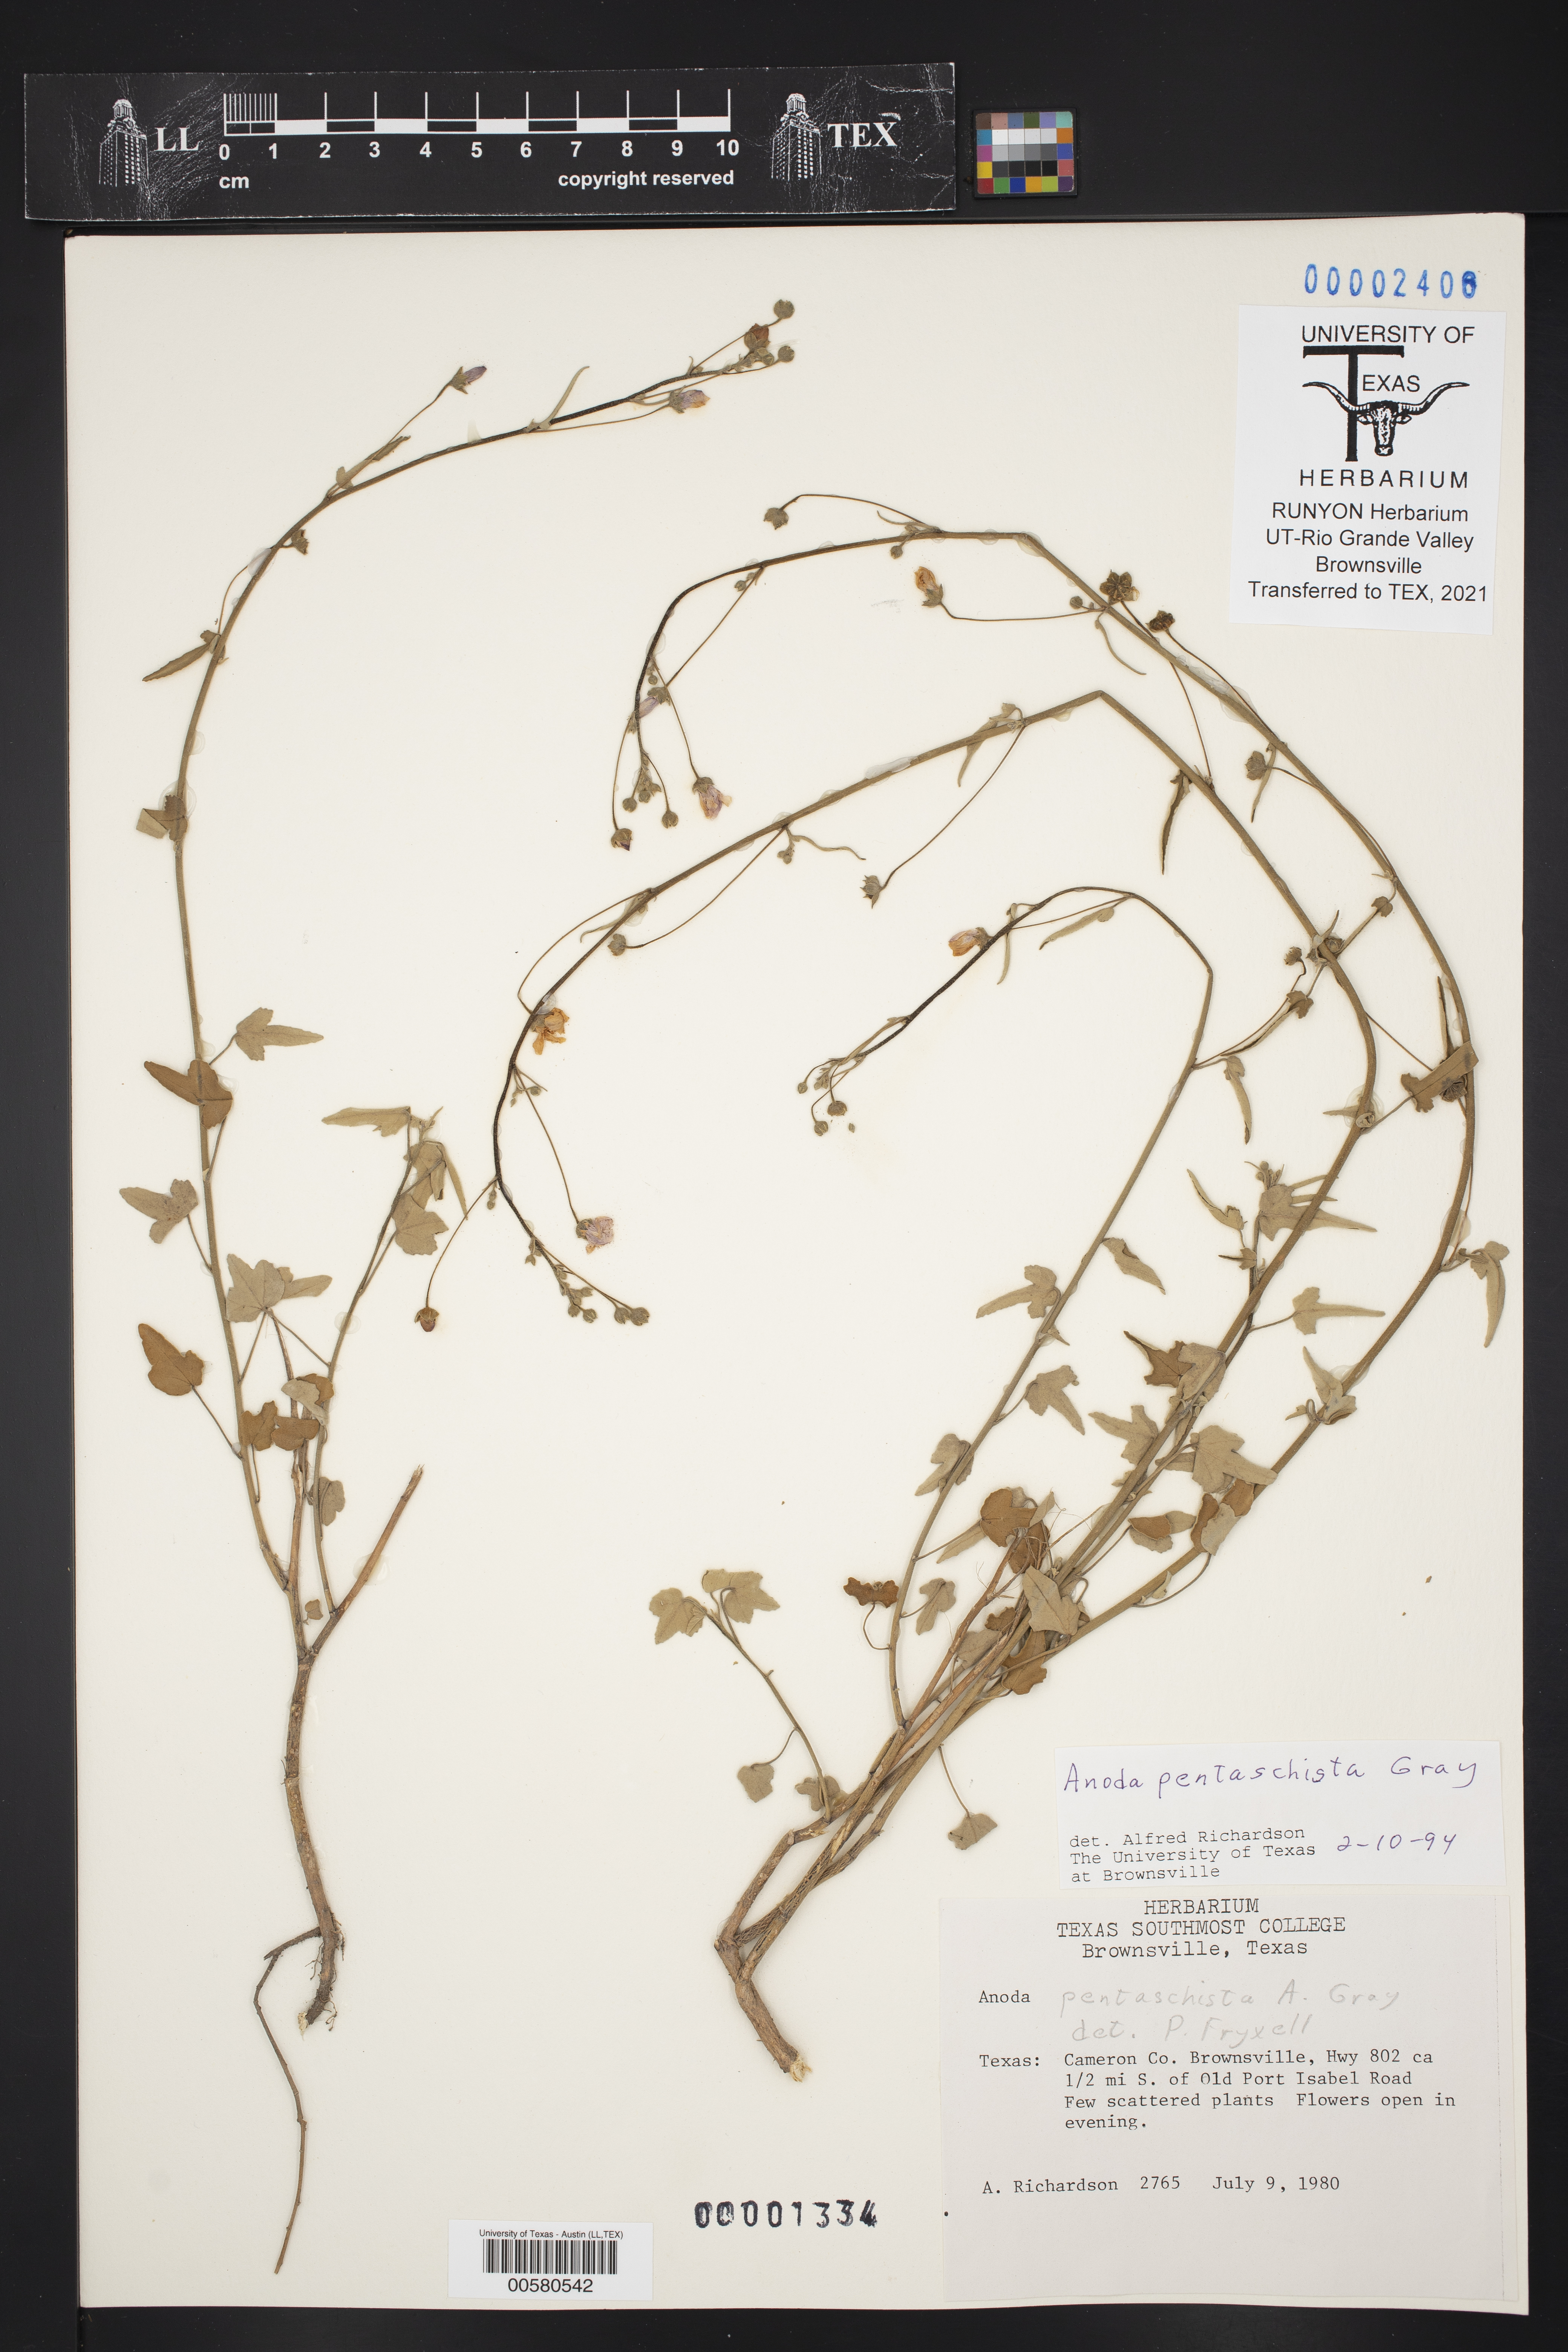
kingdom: Plantae
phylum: Tracheophyta
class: Magnoliopsida
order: Malvales
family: Malvaceae
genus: Anoda
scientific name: Anoda pentaschista
